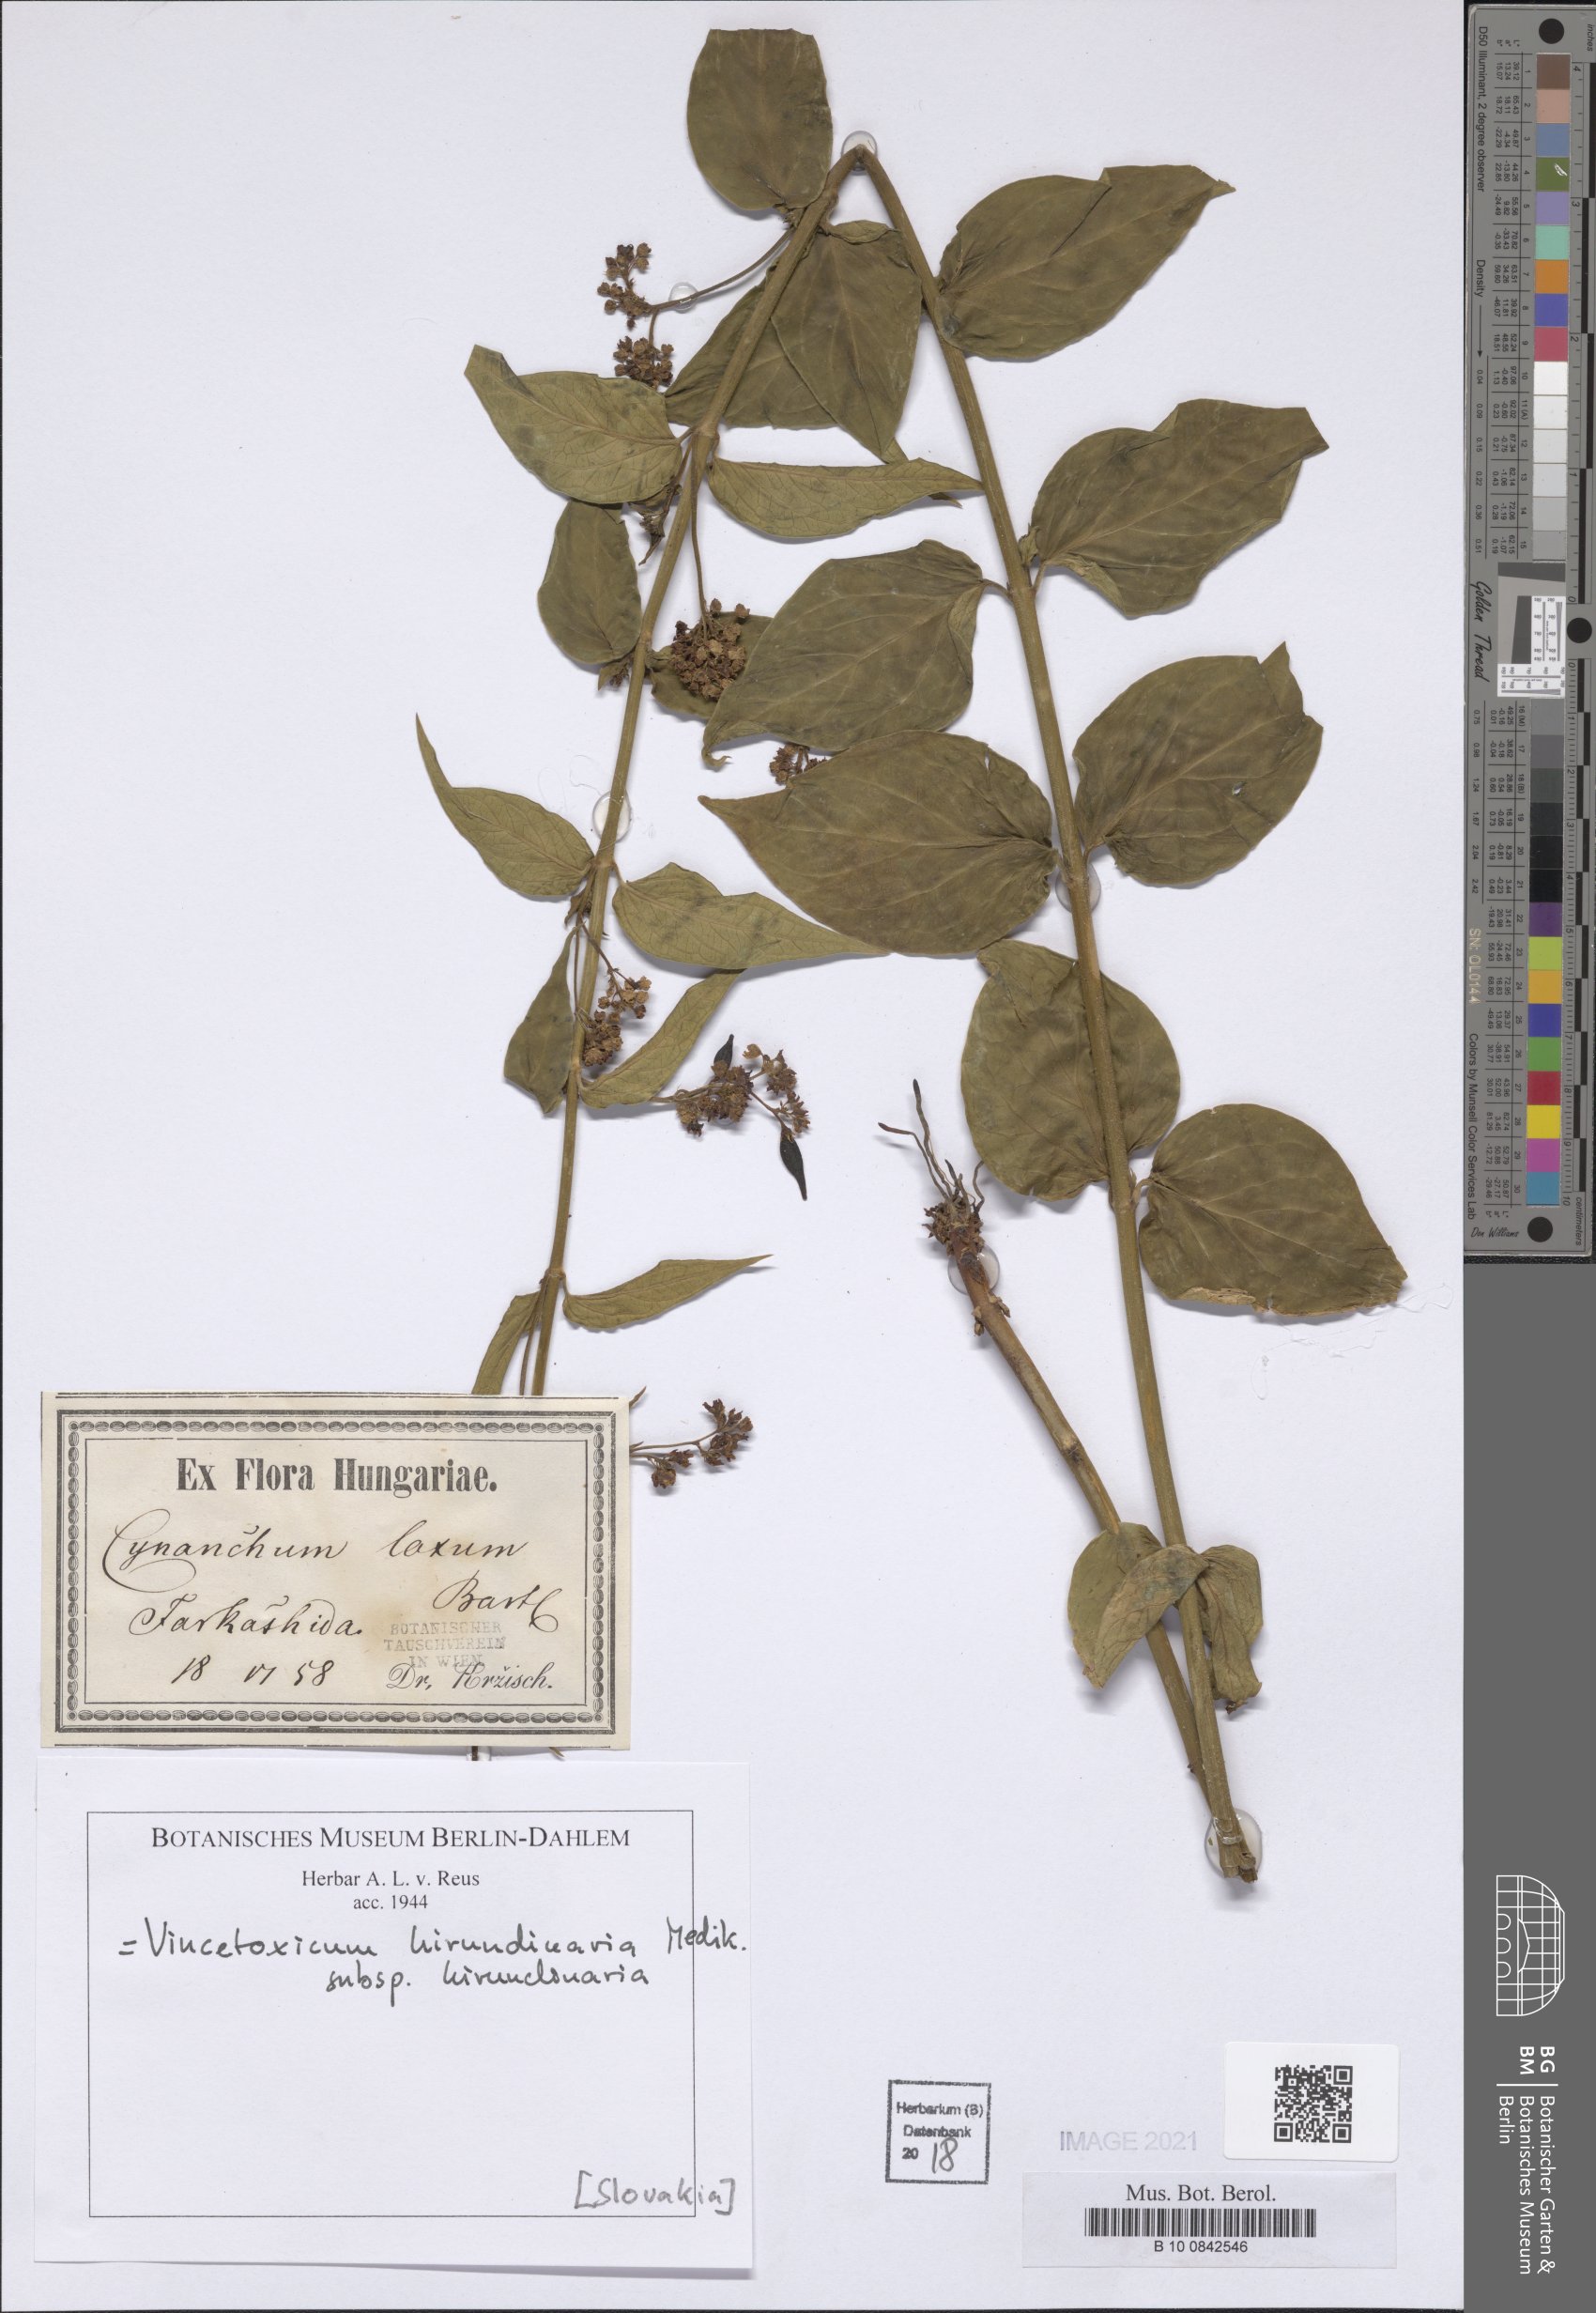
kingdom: Plantae
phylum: Tracheophyta
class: Magnoliopsida
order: Gentianales
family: Apocynaceae
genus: Vincetoxicum
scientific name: Vincetoxicum hirundinaria
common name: White swallowwort
